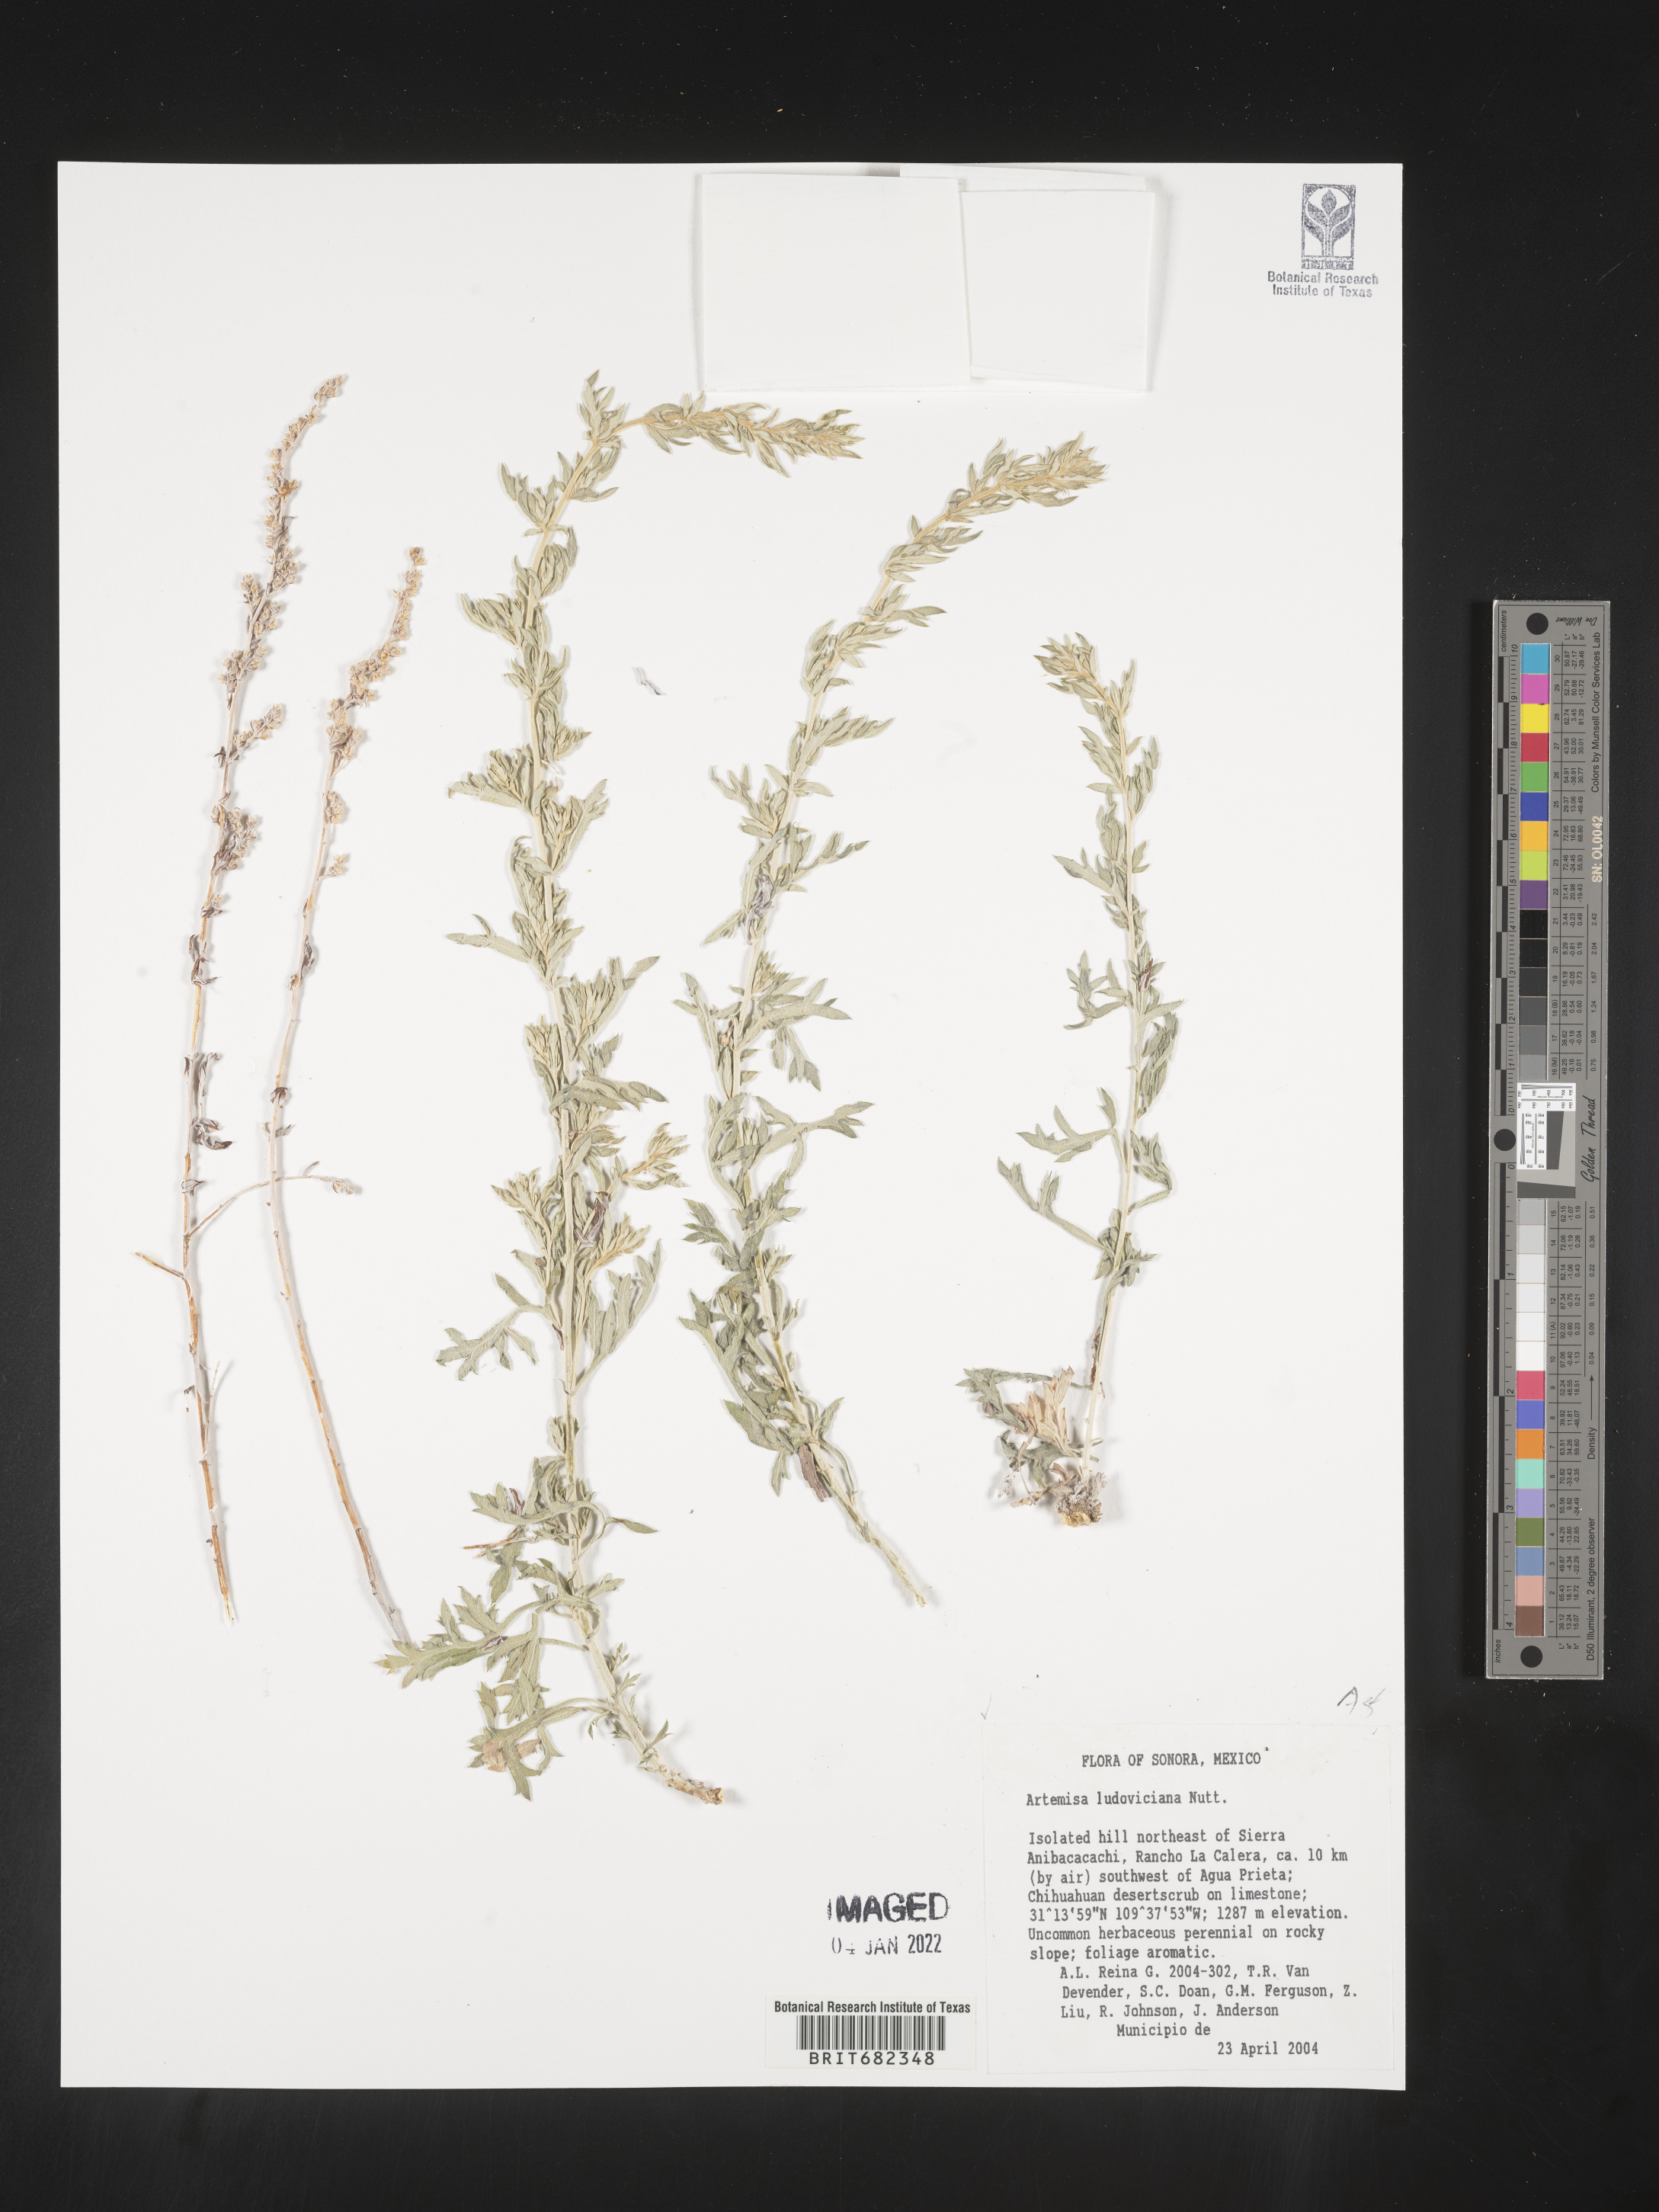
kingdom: Plantae
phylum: Tracheophyta
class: Magnoliopsida
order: Asterales
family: Asteraceae
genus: Artemisia
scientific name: Artemisia
